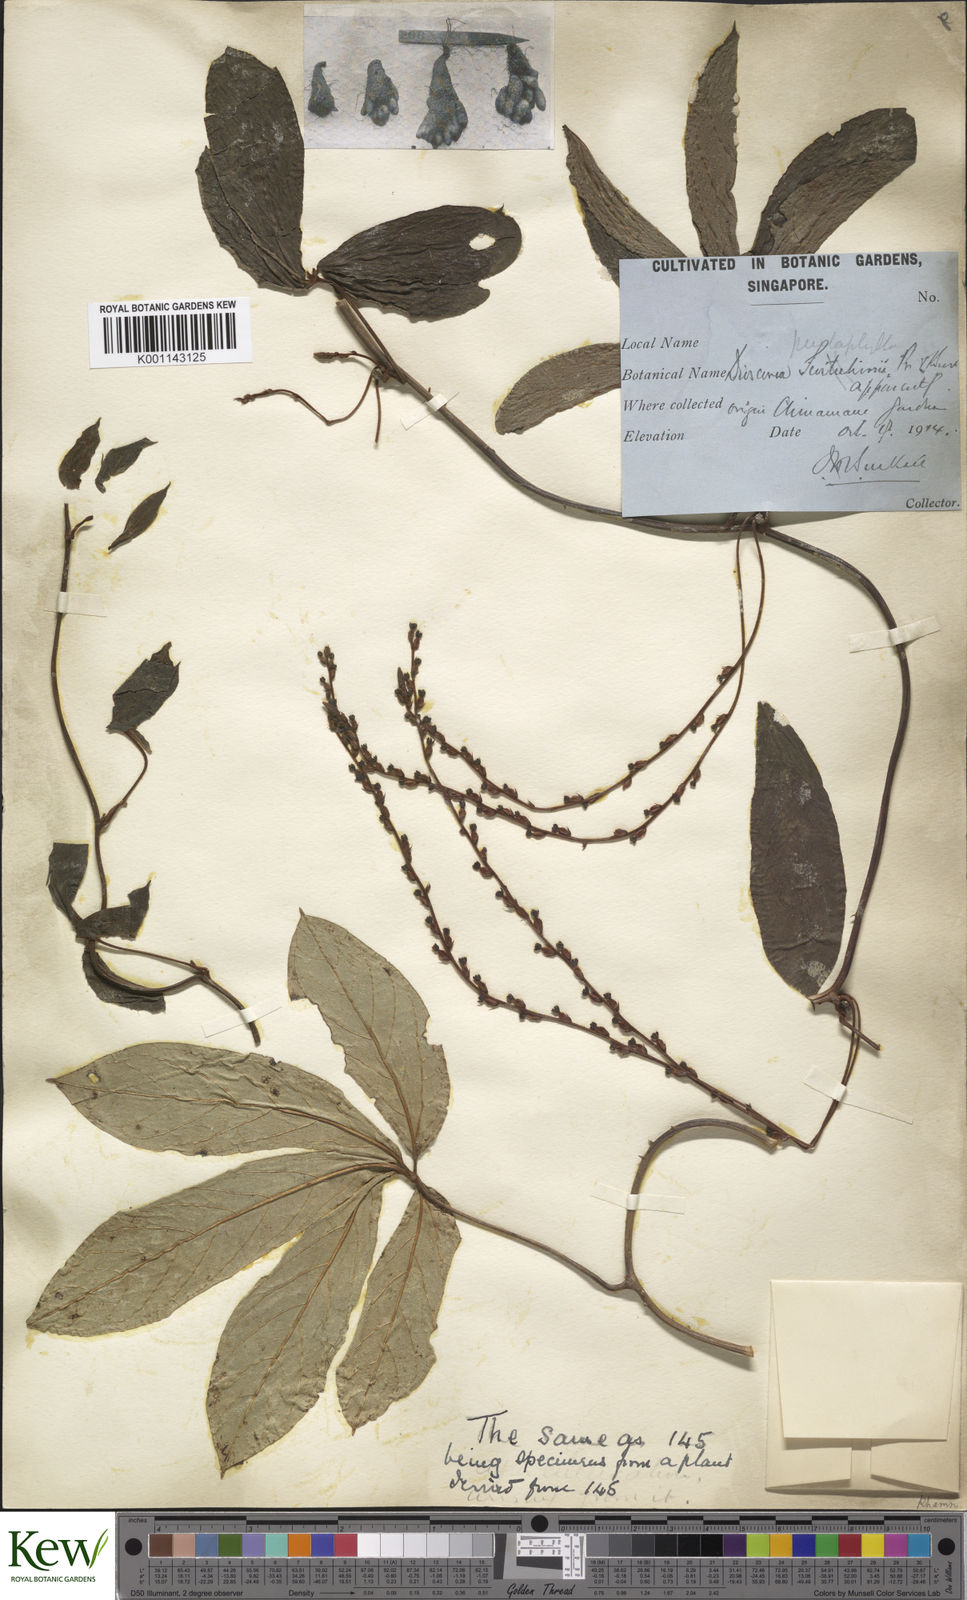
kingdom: Plantae
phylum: Tracheophyta
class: Liliopsida
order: Dioscoreales
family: Dioscoreaceae
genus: Dioscorea
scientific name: Dioscorea pentaphylla
